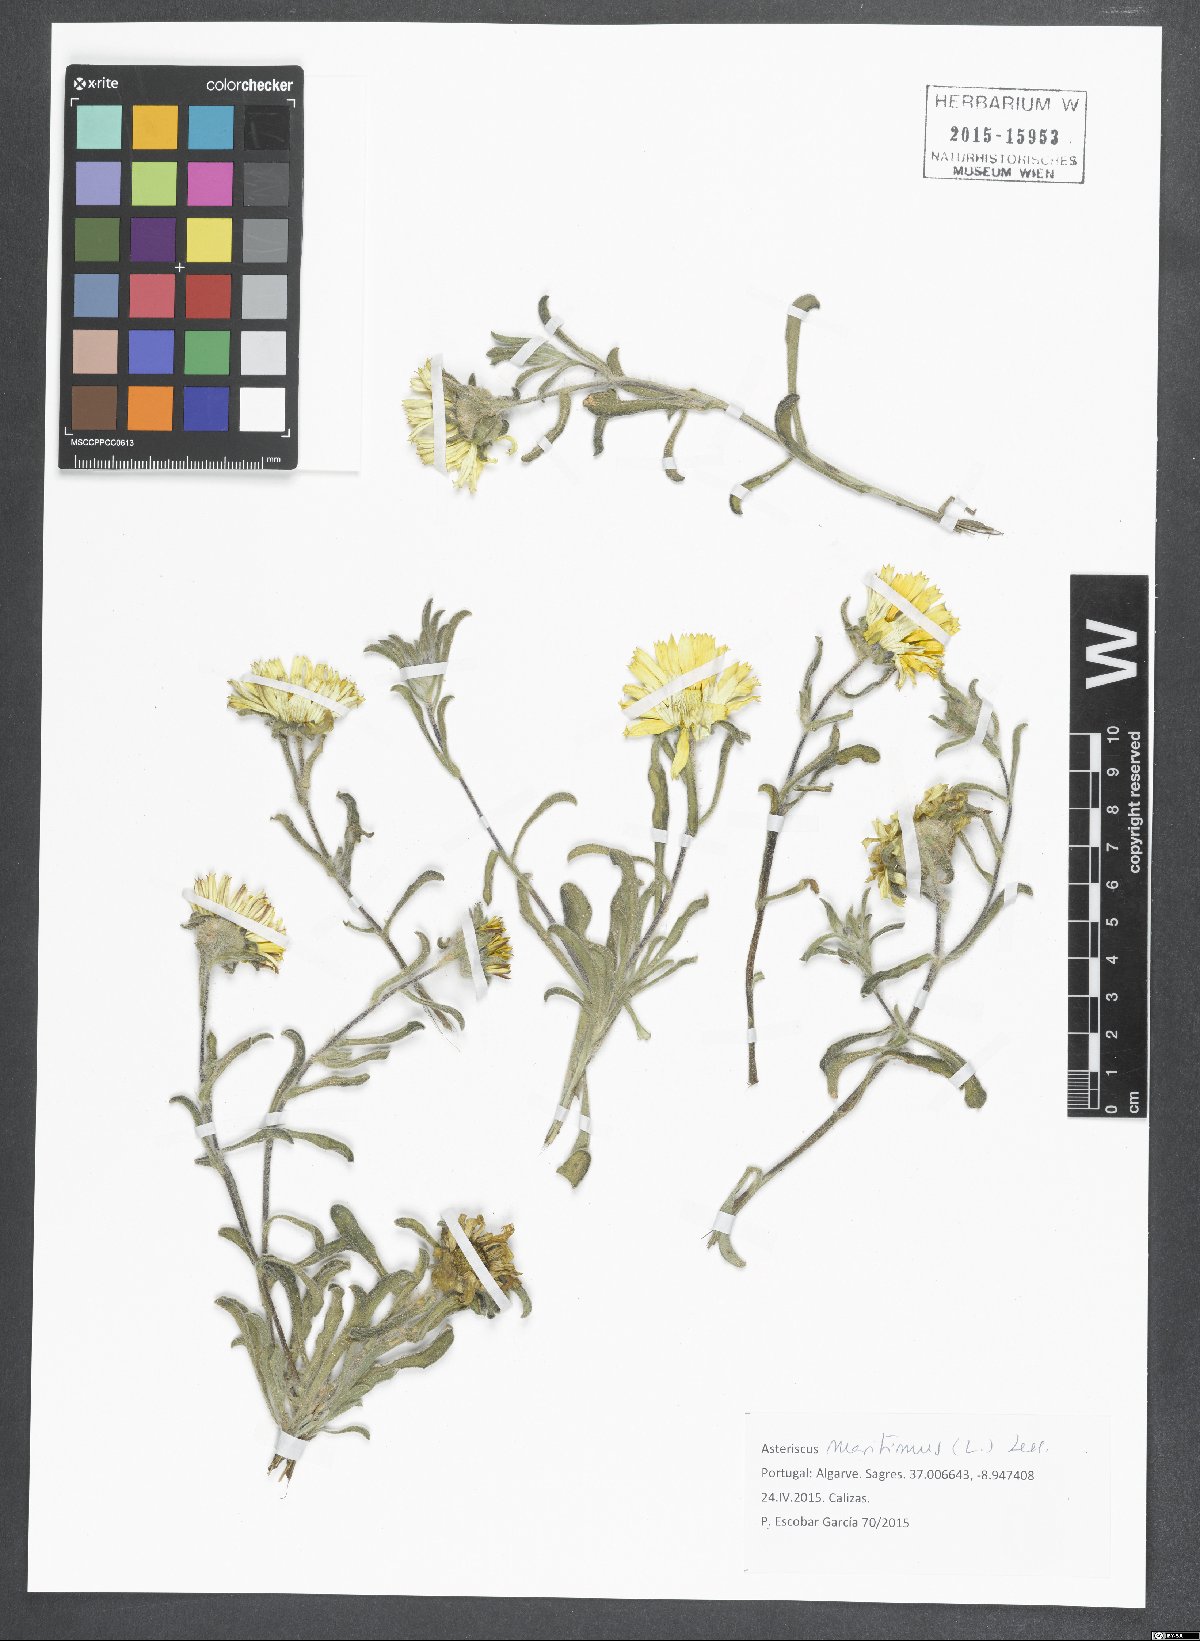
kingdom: Plantae
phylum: Tracheophyta
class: Magnoliopsida
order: Asterales
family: Asteraceae
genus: Pallenis
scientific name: Pallenis maritima
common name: Golden coin daisy
